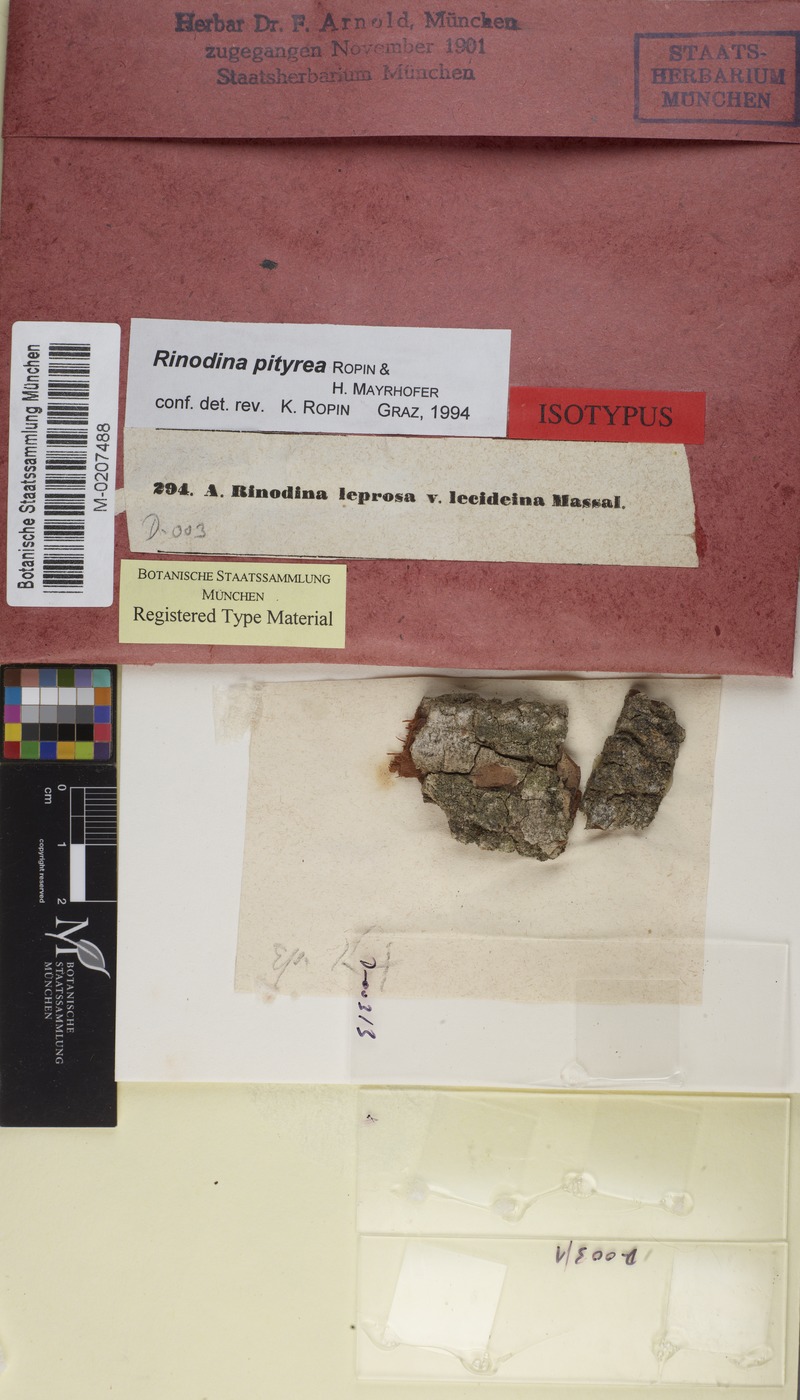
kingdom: Fungi
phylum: Ascomycota
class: Lecanoromycetes
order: Caliciales
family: Physciaceae
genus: Rinodina
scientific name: Rinodina pityrea
